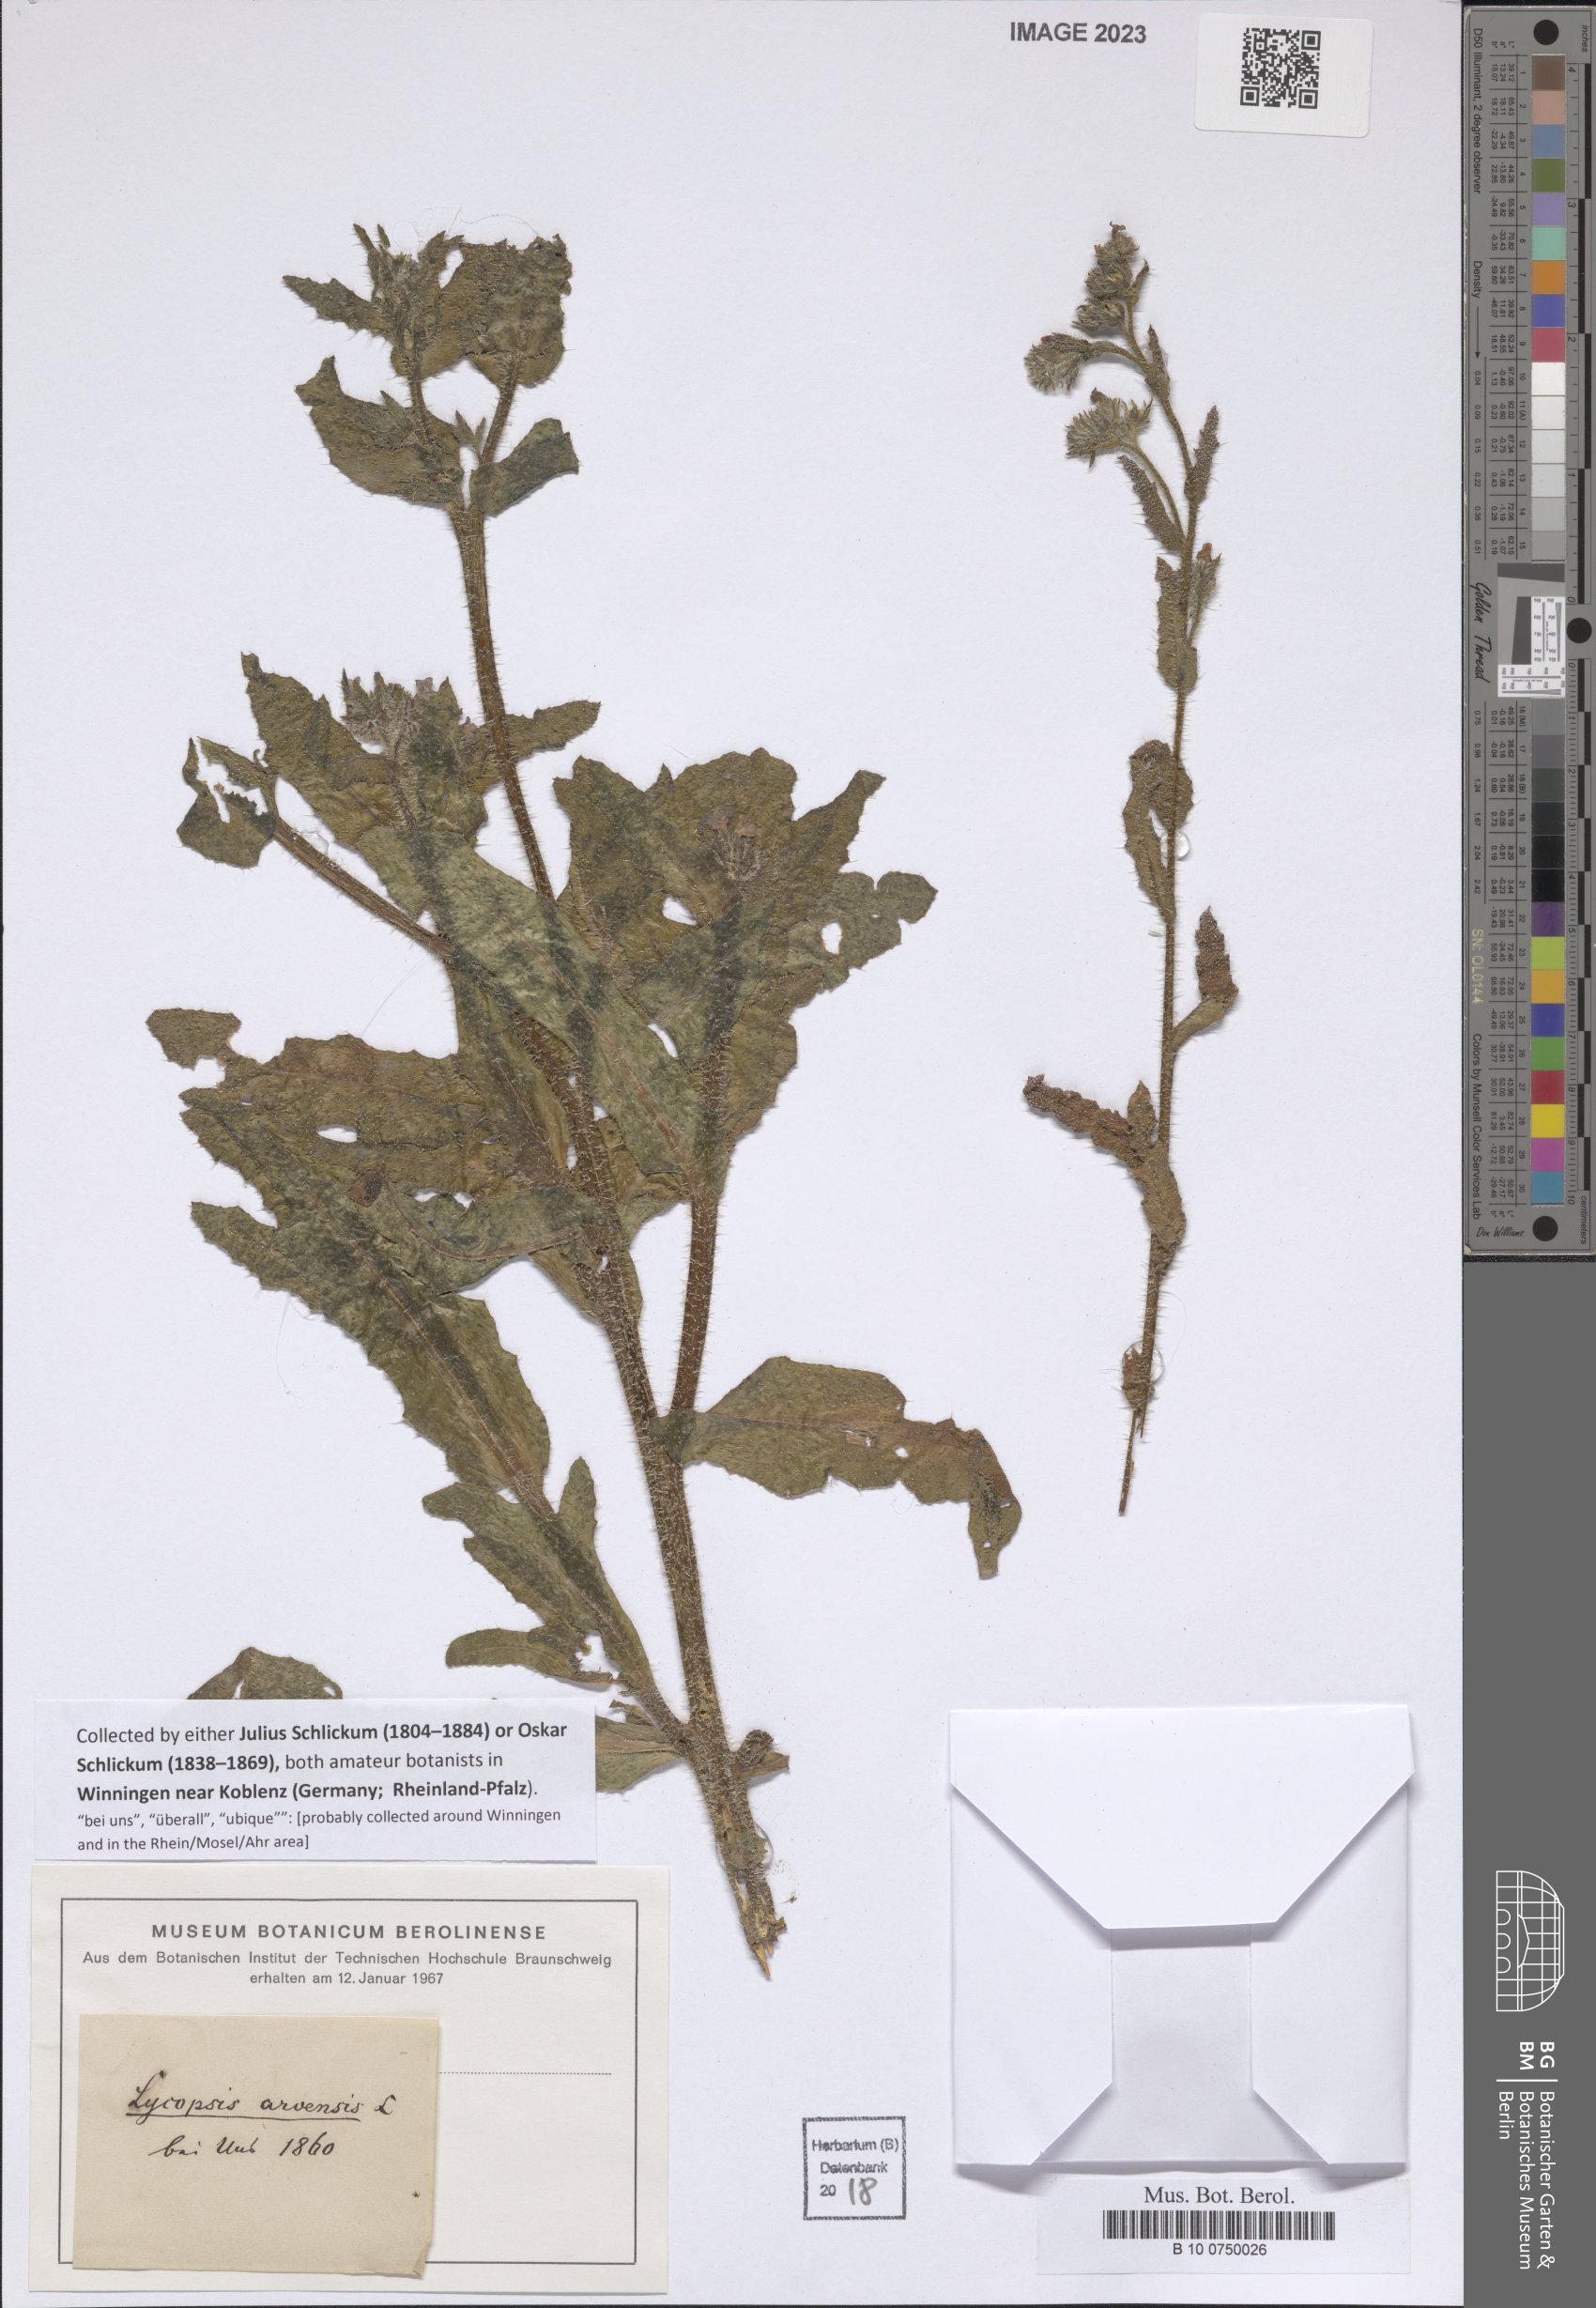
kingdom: Plantae
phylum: Tracheophyta
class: Magnoliopsida
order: Boraginales
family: Boraginaceae
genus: Lycopsis
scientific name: Lycopsis arvensis
